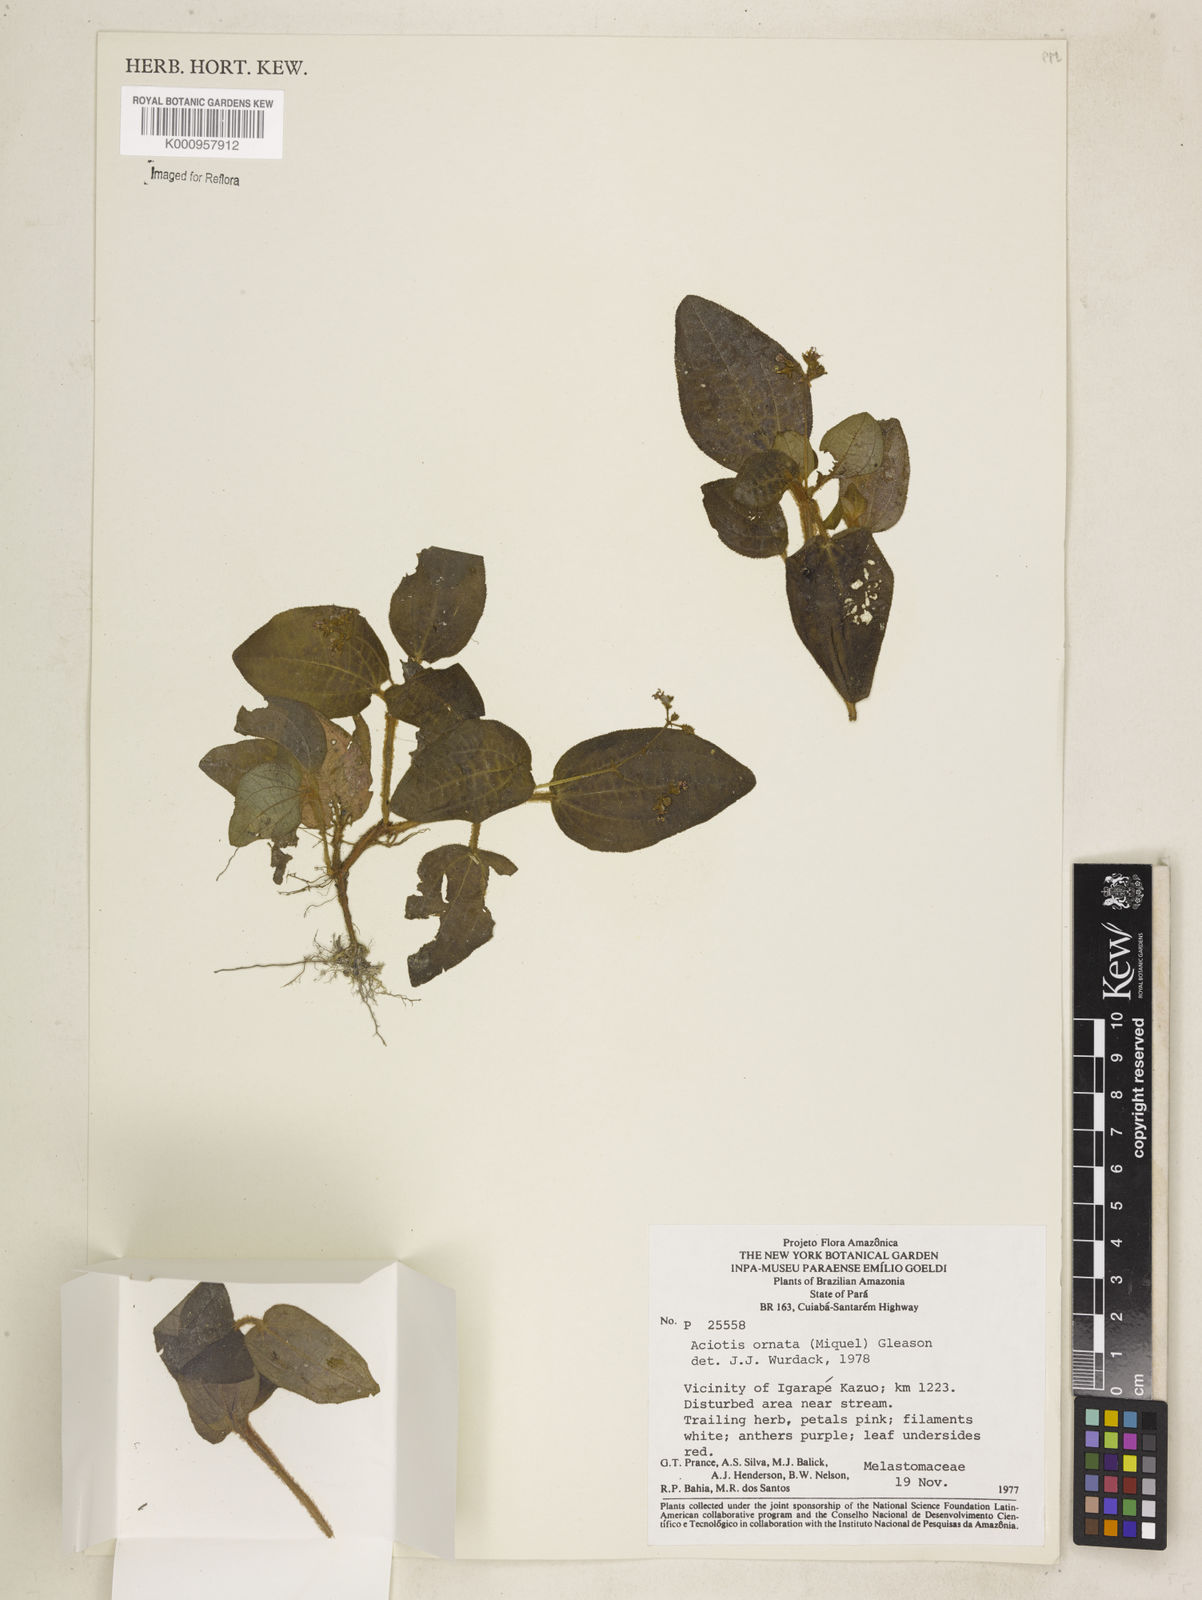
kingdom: Plantae
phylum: Tracheophyta
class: Magnoliopsida
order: Myrtales
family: Melastomataceae
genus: Aciotis
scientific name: Aciotis ornata
